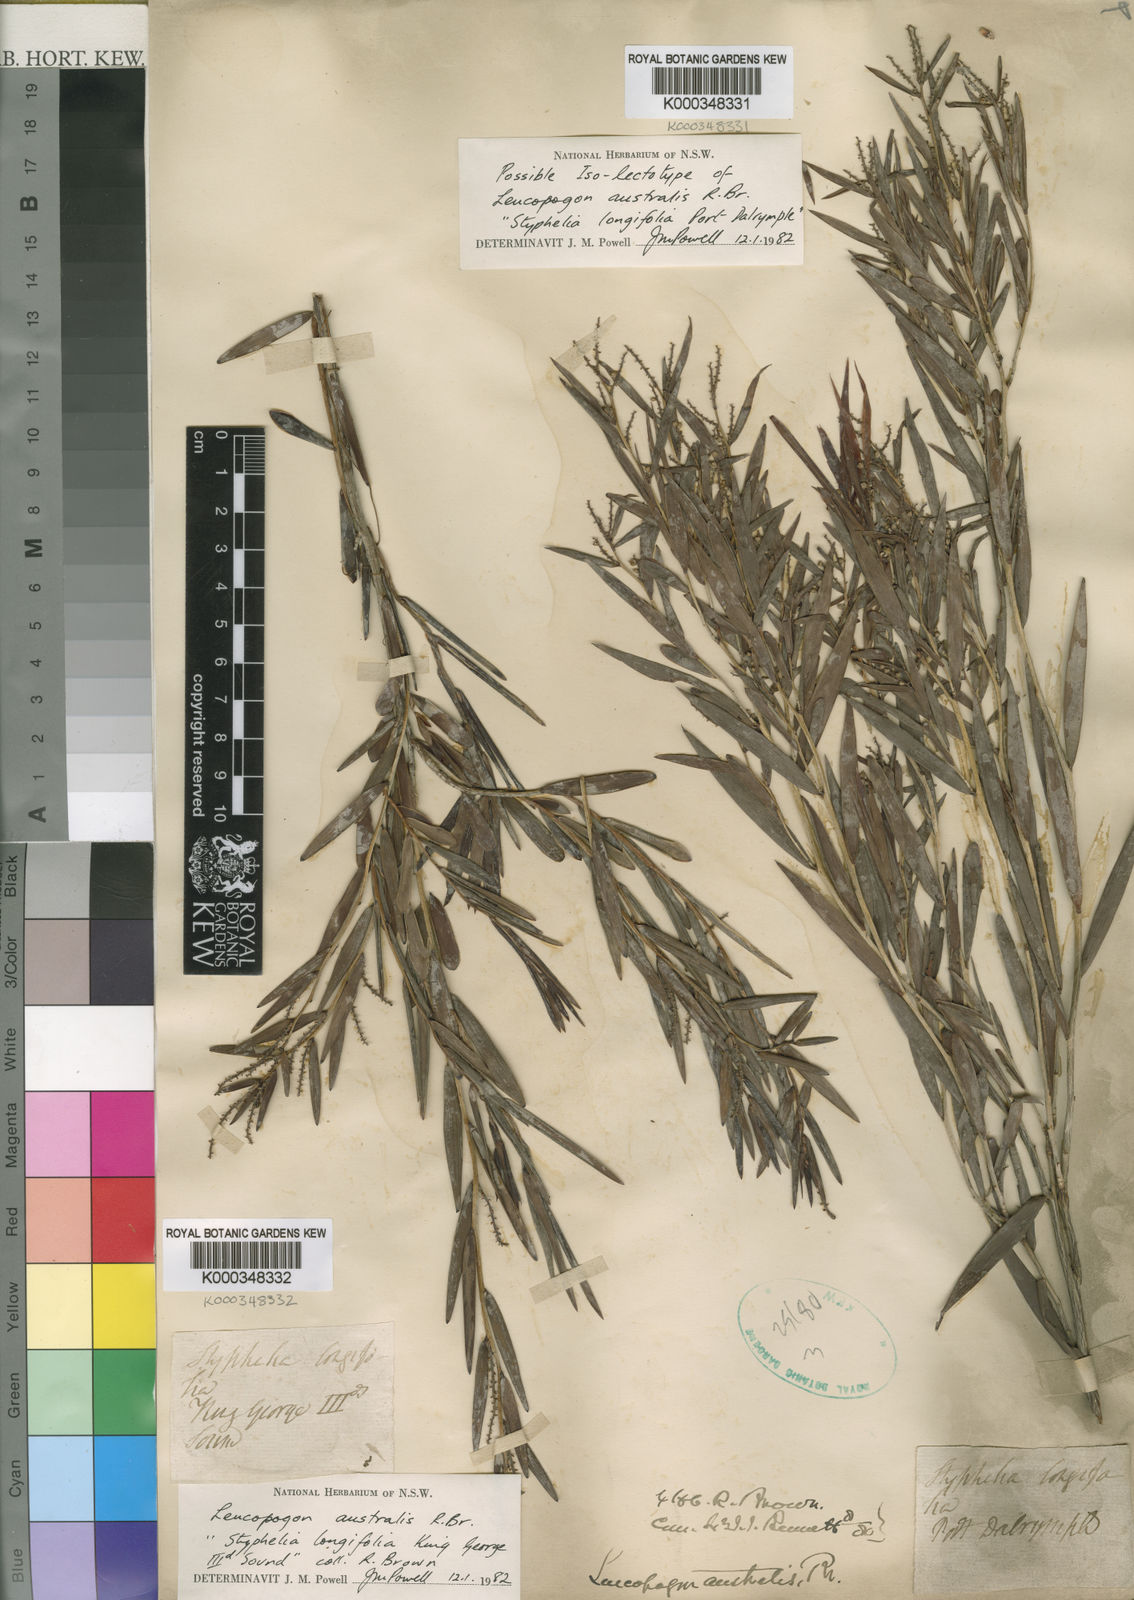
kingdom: Plantae
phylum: Tracheophyta
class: Magnoliopsida
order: Ericales
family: Ericaceae
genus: Leucopogon
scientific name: Leucopogon australis
